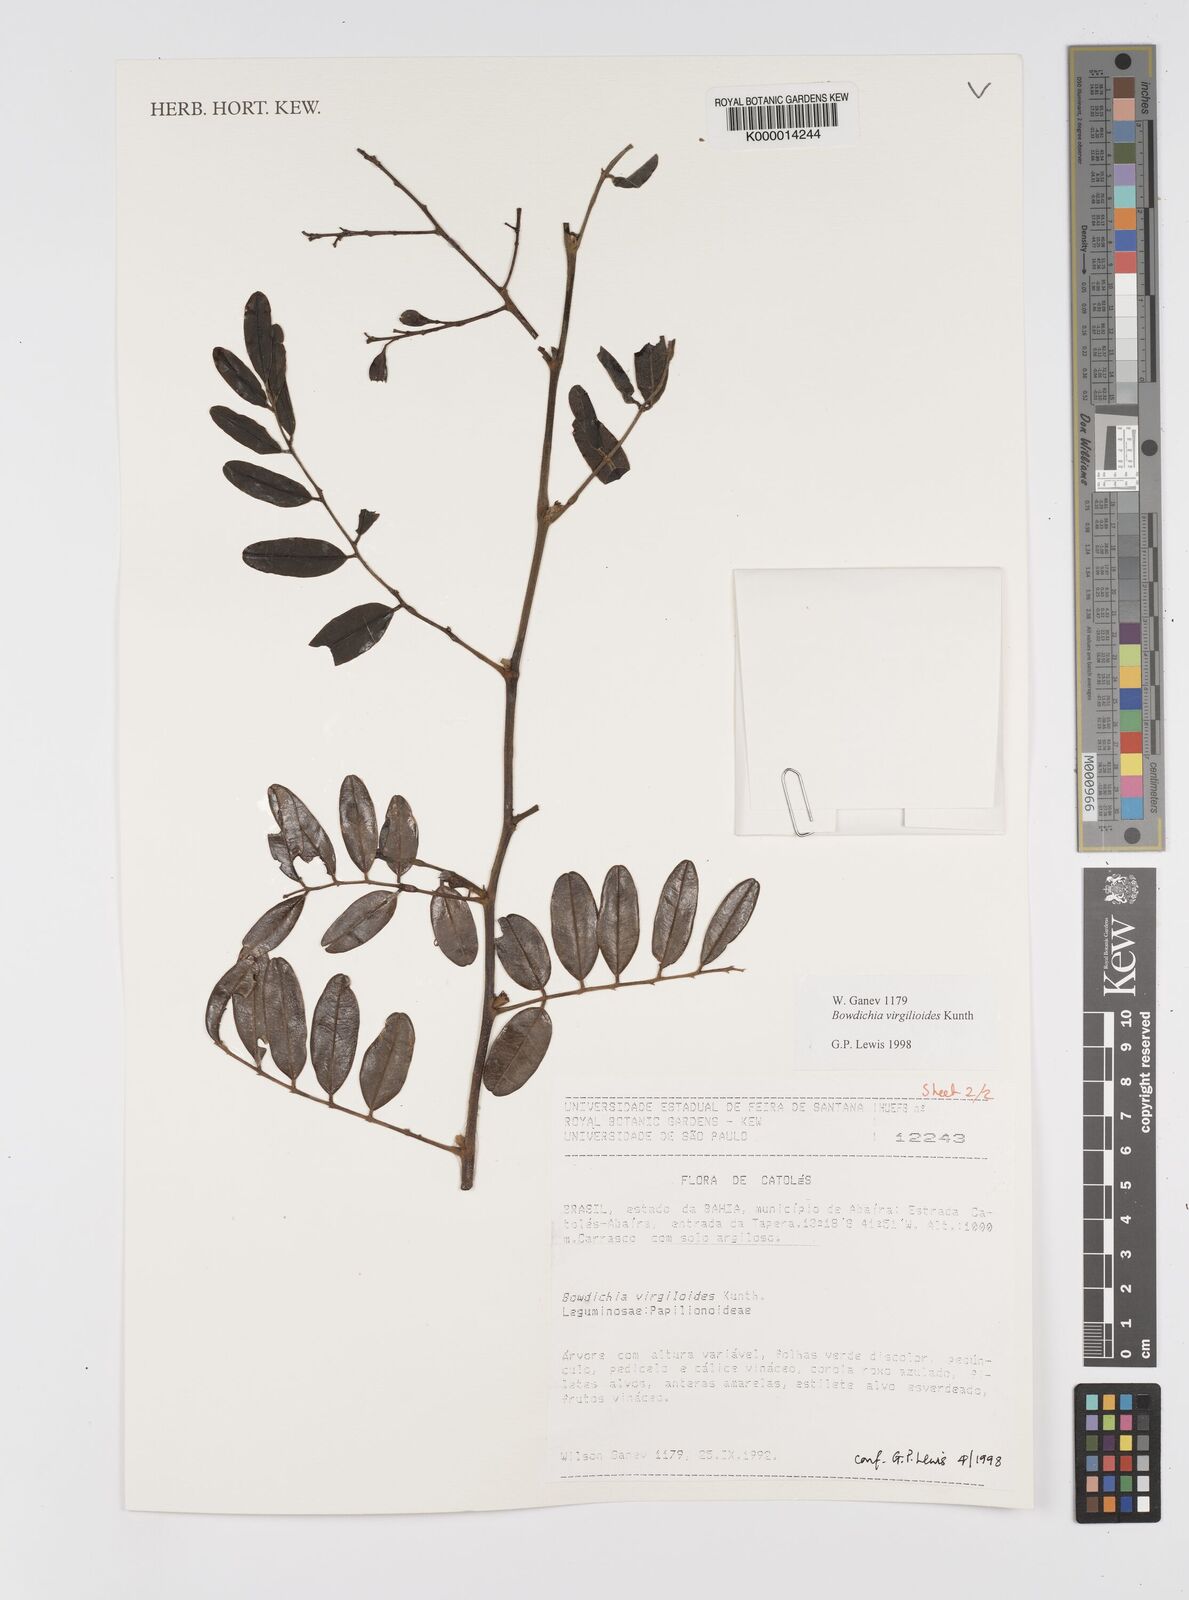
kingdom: Plantae
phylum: Tracheophyta
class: Magnoliopsida
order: Fabales
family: Fabaceae
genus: Bowdichia
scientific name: Bowdichia virgilioides
